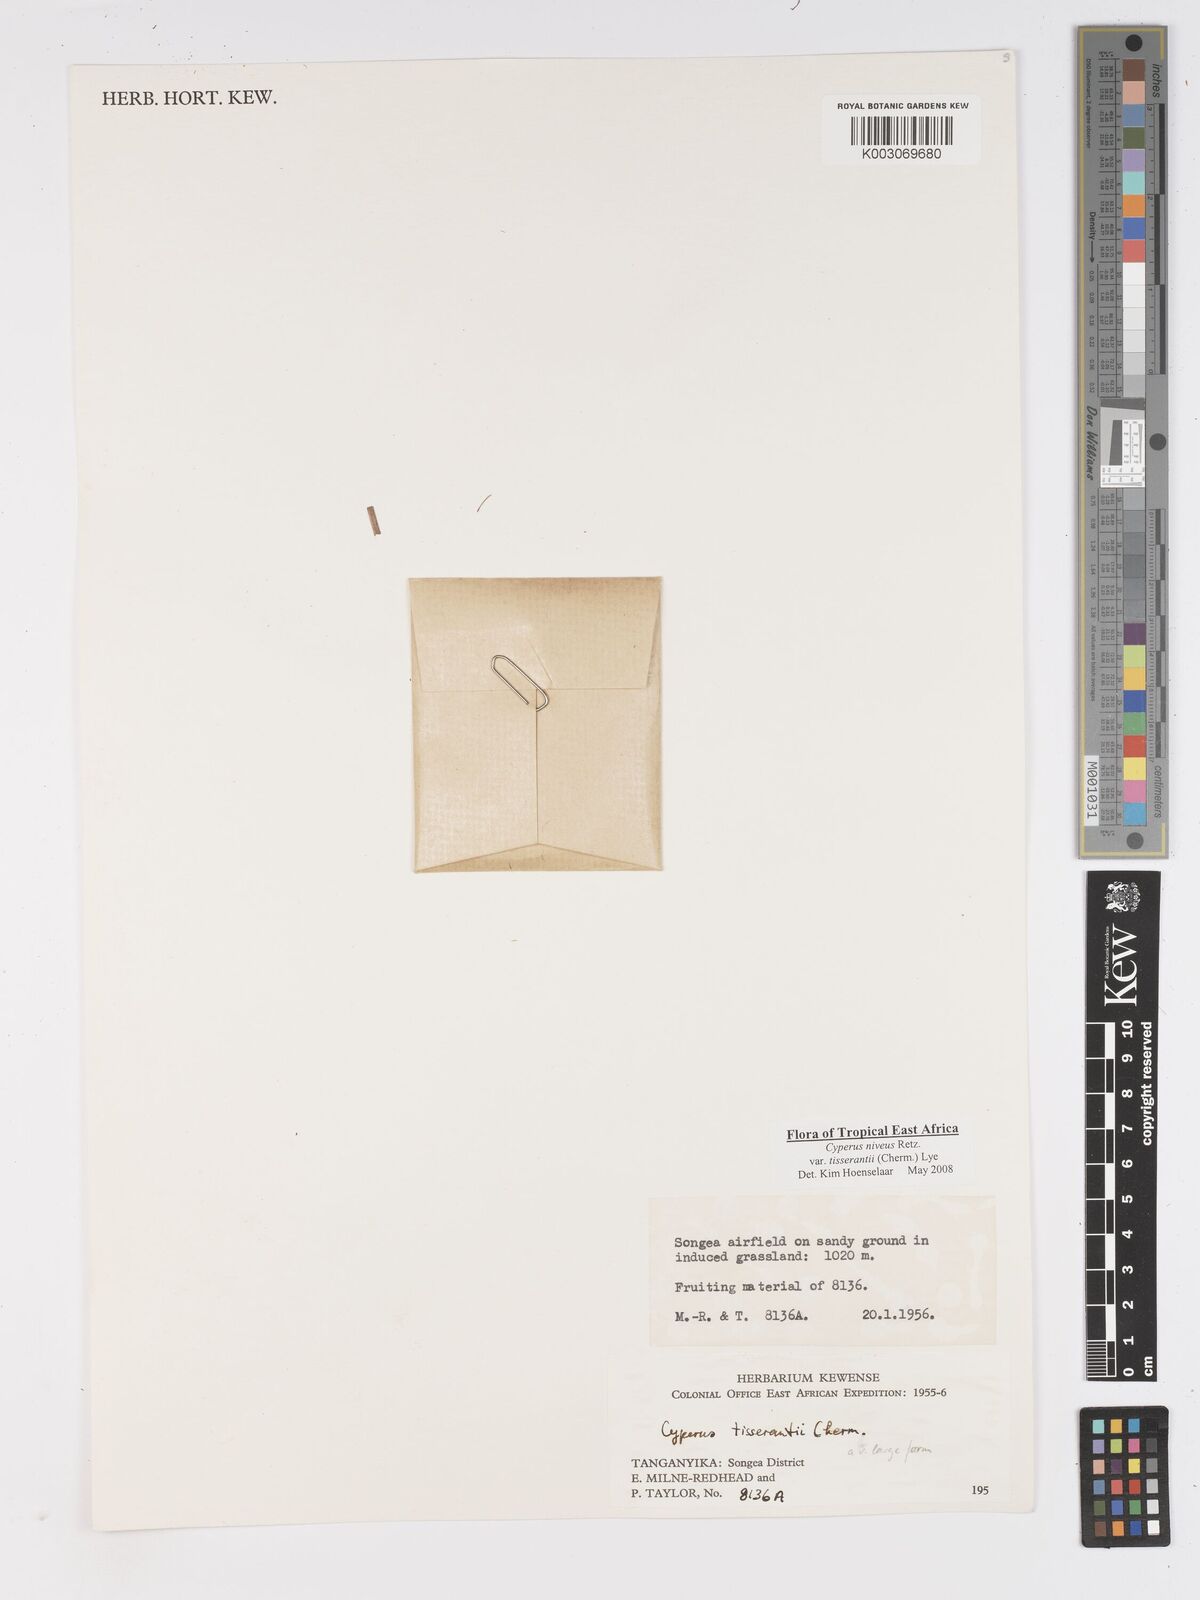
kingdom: Plantae
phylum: Tracheophyta
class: Liliopsida
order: Poales
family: Cyperaceae
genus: Cyperus
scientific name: Cyperus niveus
